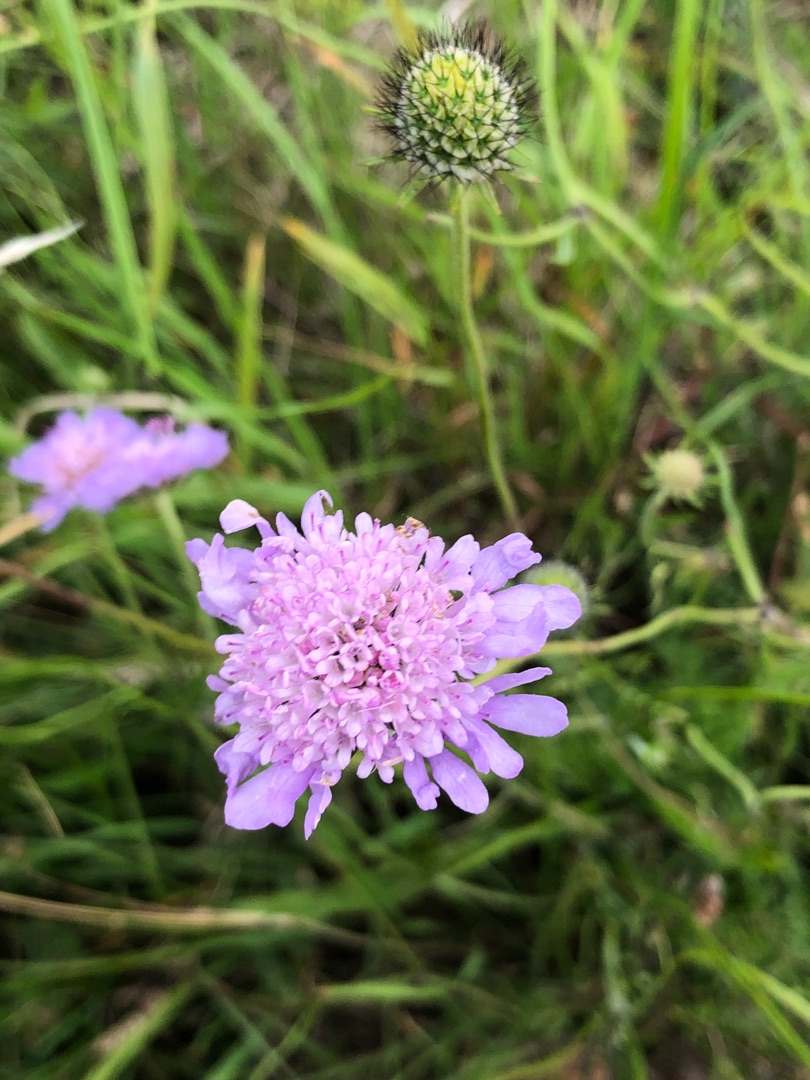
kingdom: Plantae
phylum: Tracheophyta
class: Magnoliopsida
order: Dipsacales
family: Caprifoliaceae
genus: Scabiosa
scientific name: Scabiosa columbaria
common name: Due-skabiose
